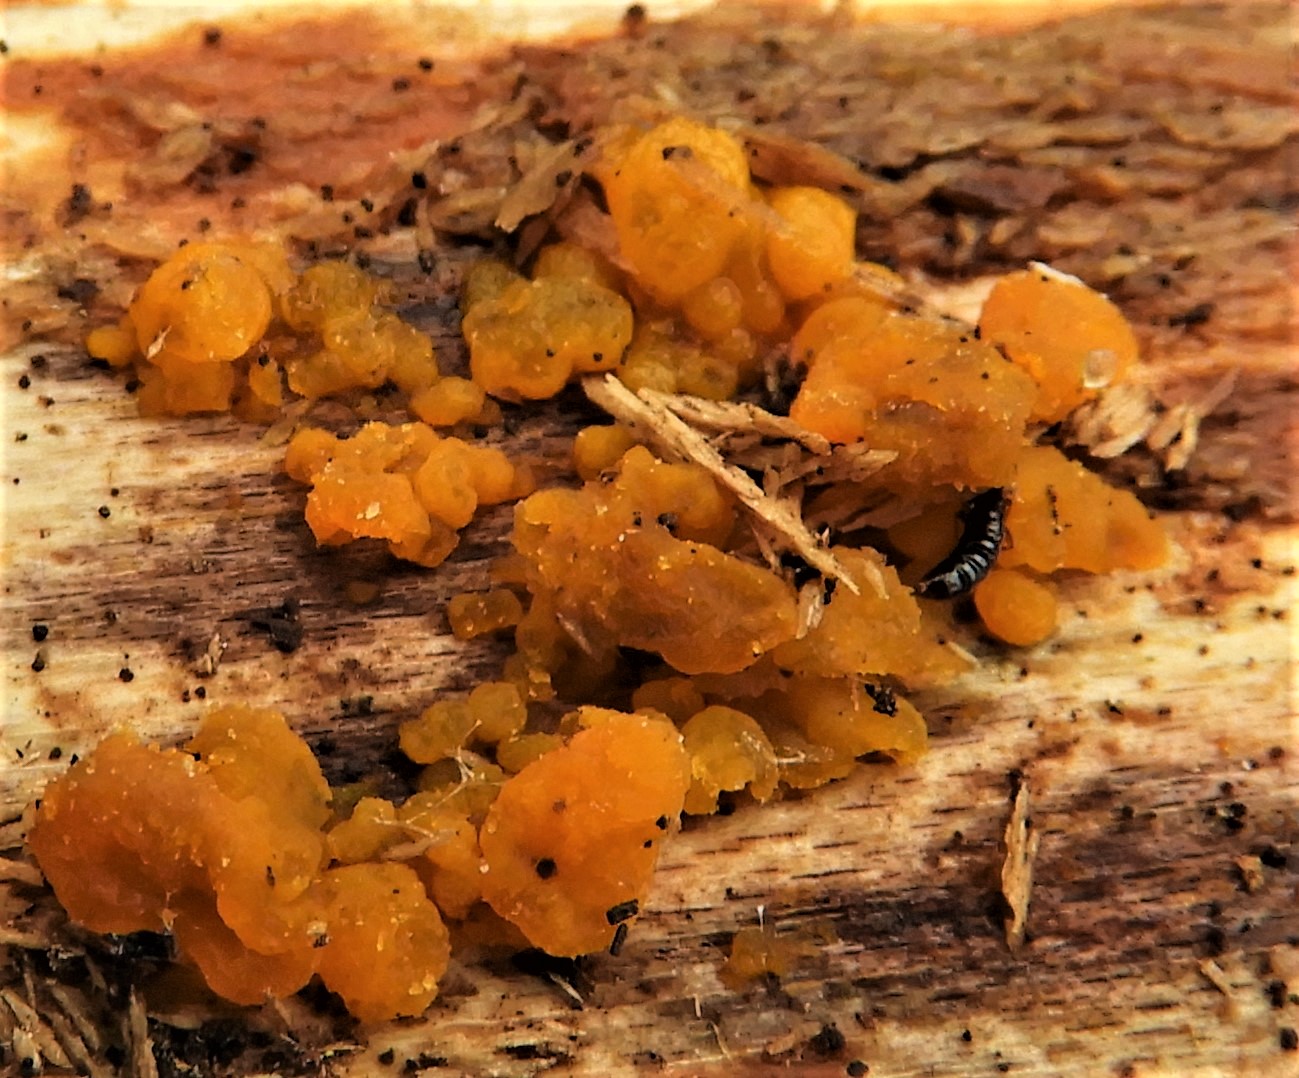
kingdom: Fungi
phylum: Basidiomycota
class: Dacrymycetes
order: Dacrymycetales
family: Dacrymycetaceae
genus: Dacrymyces
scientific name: Dacrymyces lacrymalis
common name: rynket tåresvamp
